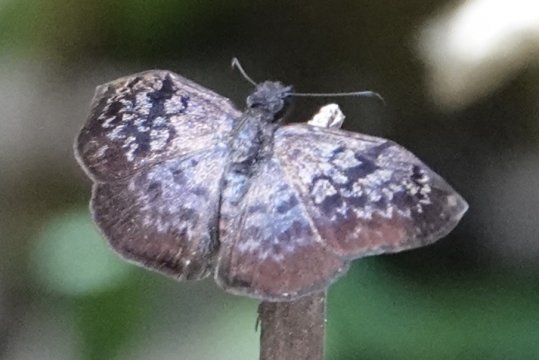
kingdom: Animalia
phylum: Arthropoda
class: Insecta
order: Lepidoptera
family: Hesperiidae
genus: Camptopleura
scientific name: Camptopleura auxo
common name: Auxo Bent-Skipper
